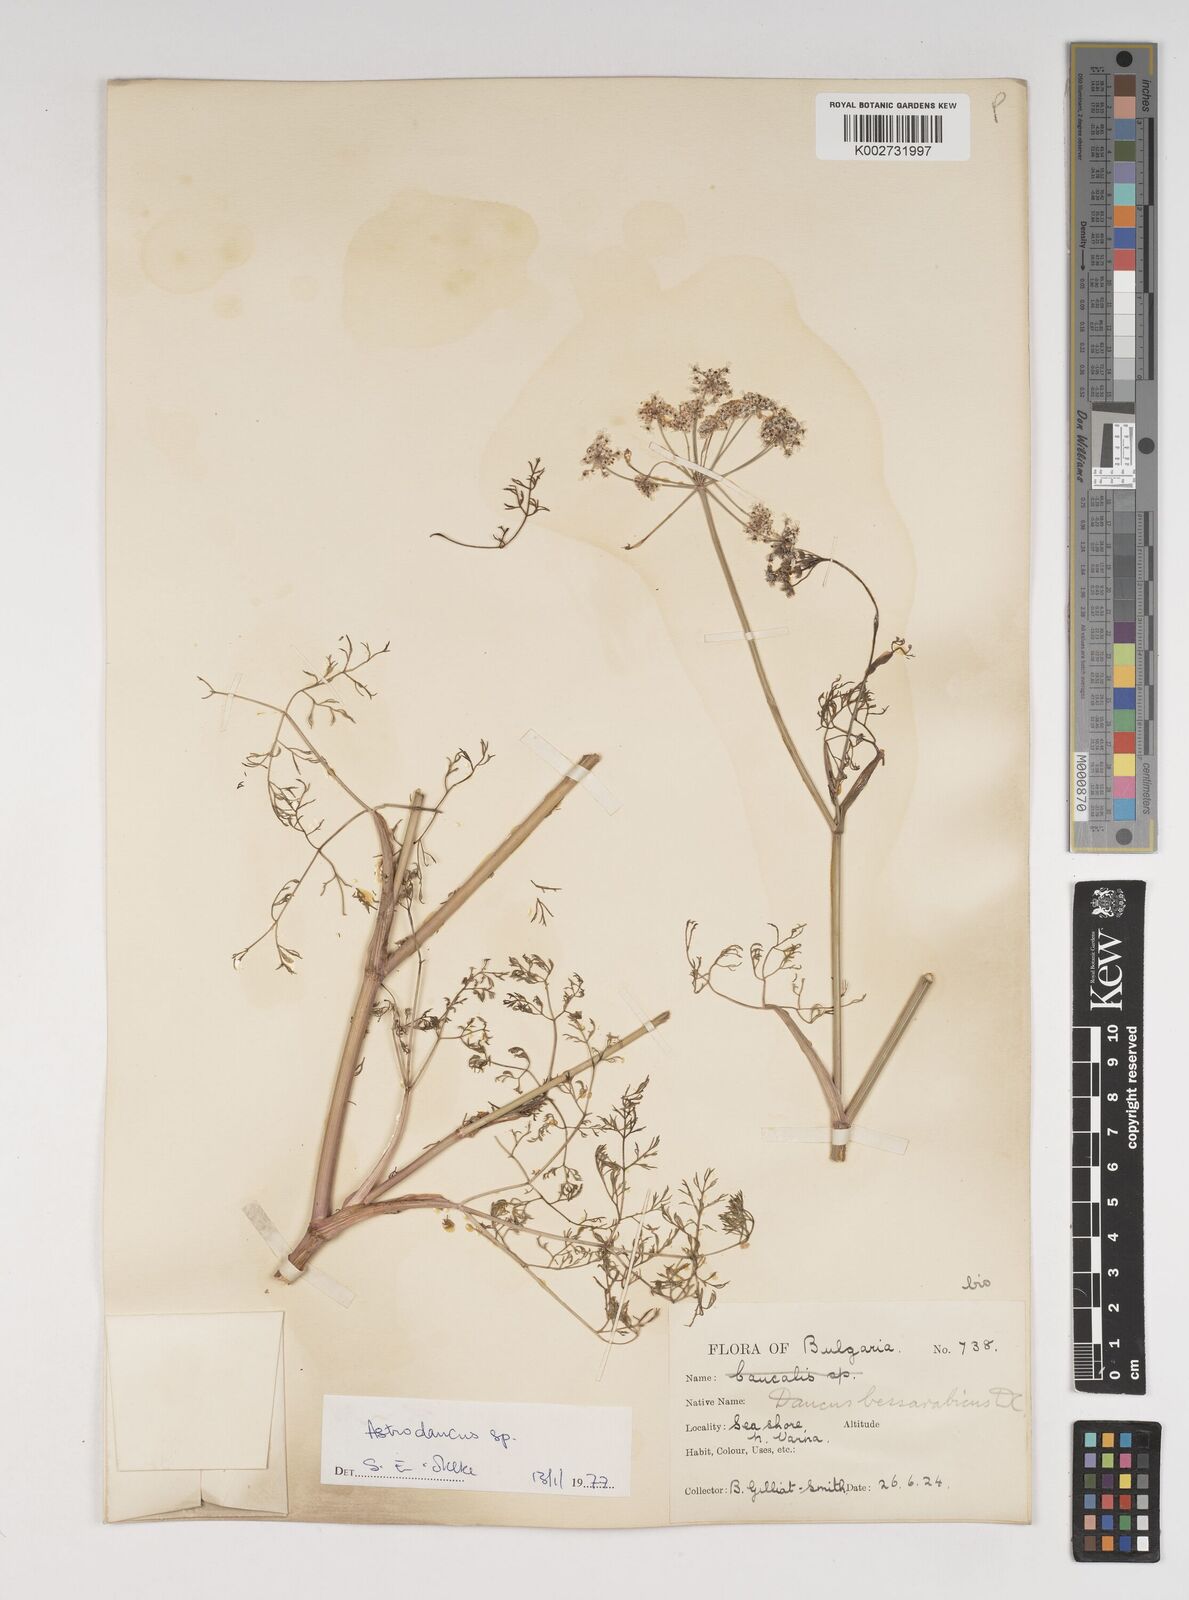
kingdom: Plantae
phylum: Tracheophyta
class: Magnoliopsida
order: Apiales
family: Apiaceae
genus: Astrodaucus
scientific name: Astrodaucus littoralis
